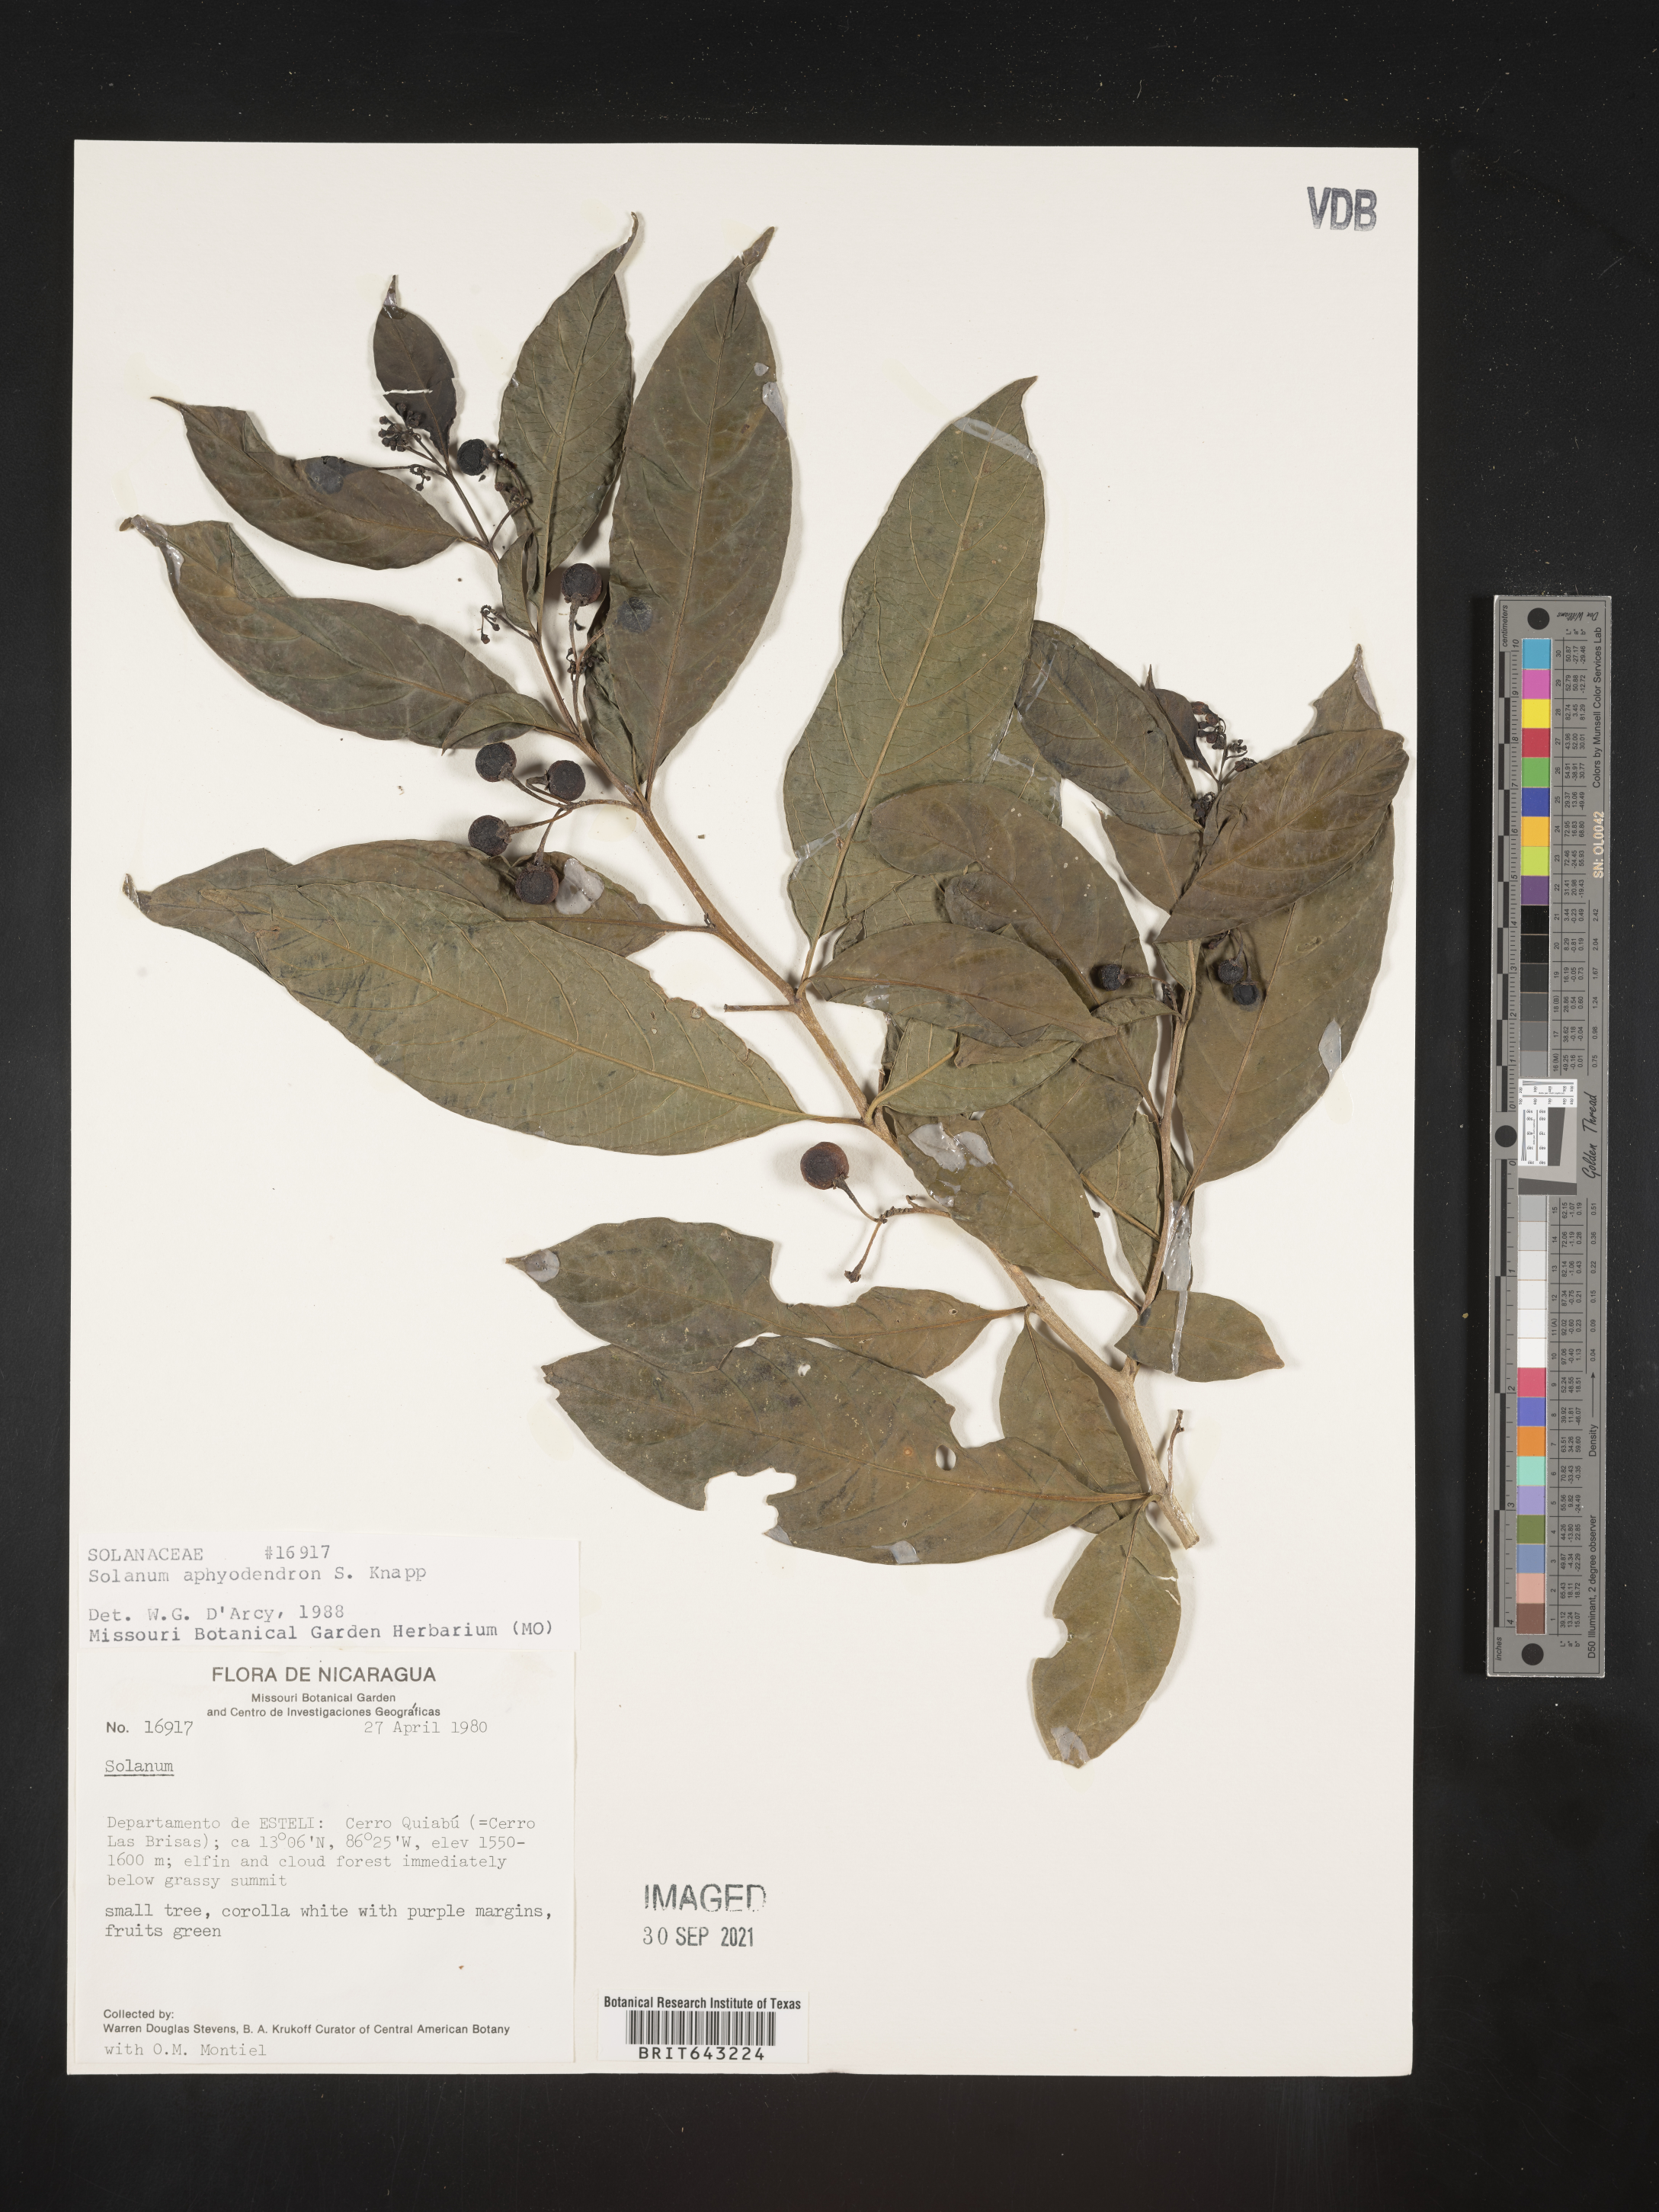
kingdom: Plantae
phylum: Tracheophyta
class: Magnoliopsida
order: Solanales
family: Solanaceae
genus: Solanum
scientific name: Solanum
